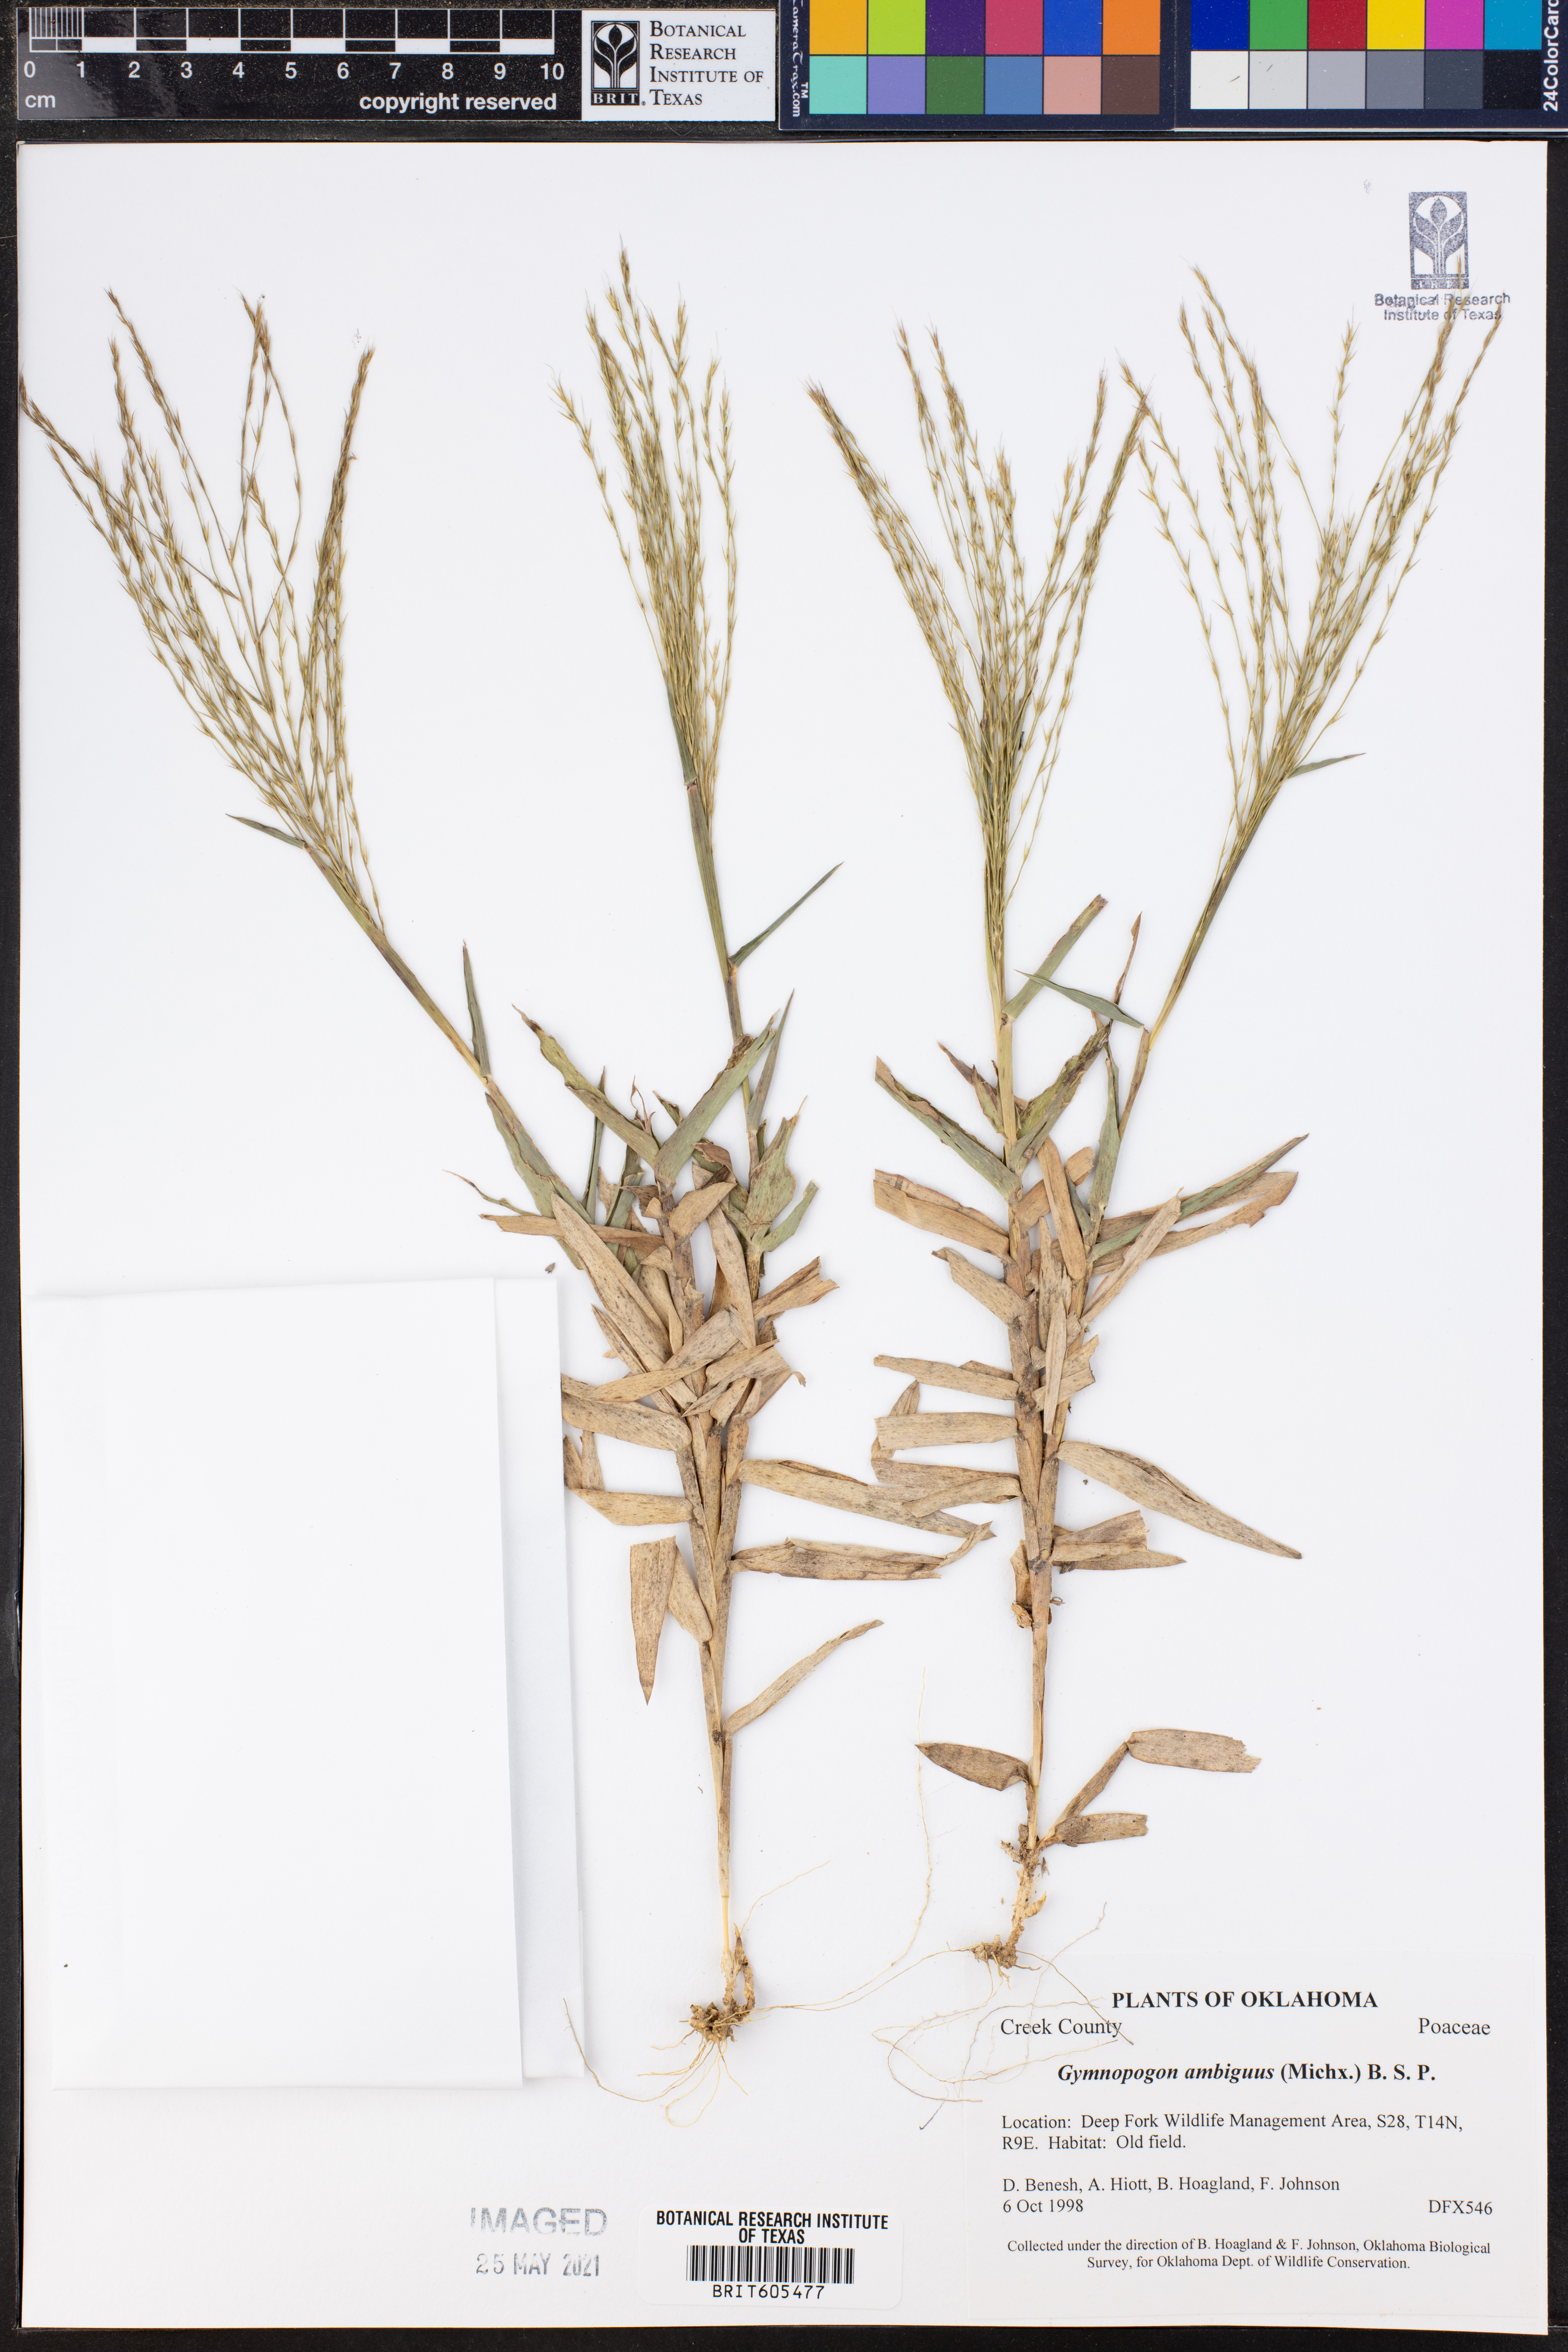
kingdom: Plantae
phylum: Tracheophyta
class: Liliopsida
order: Poales
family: Poaceae
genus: Gymnopogon
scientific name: Gymnopogon ambiguus
